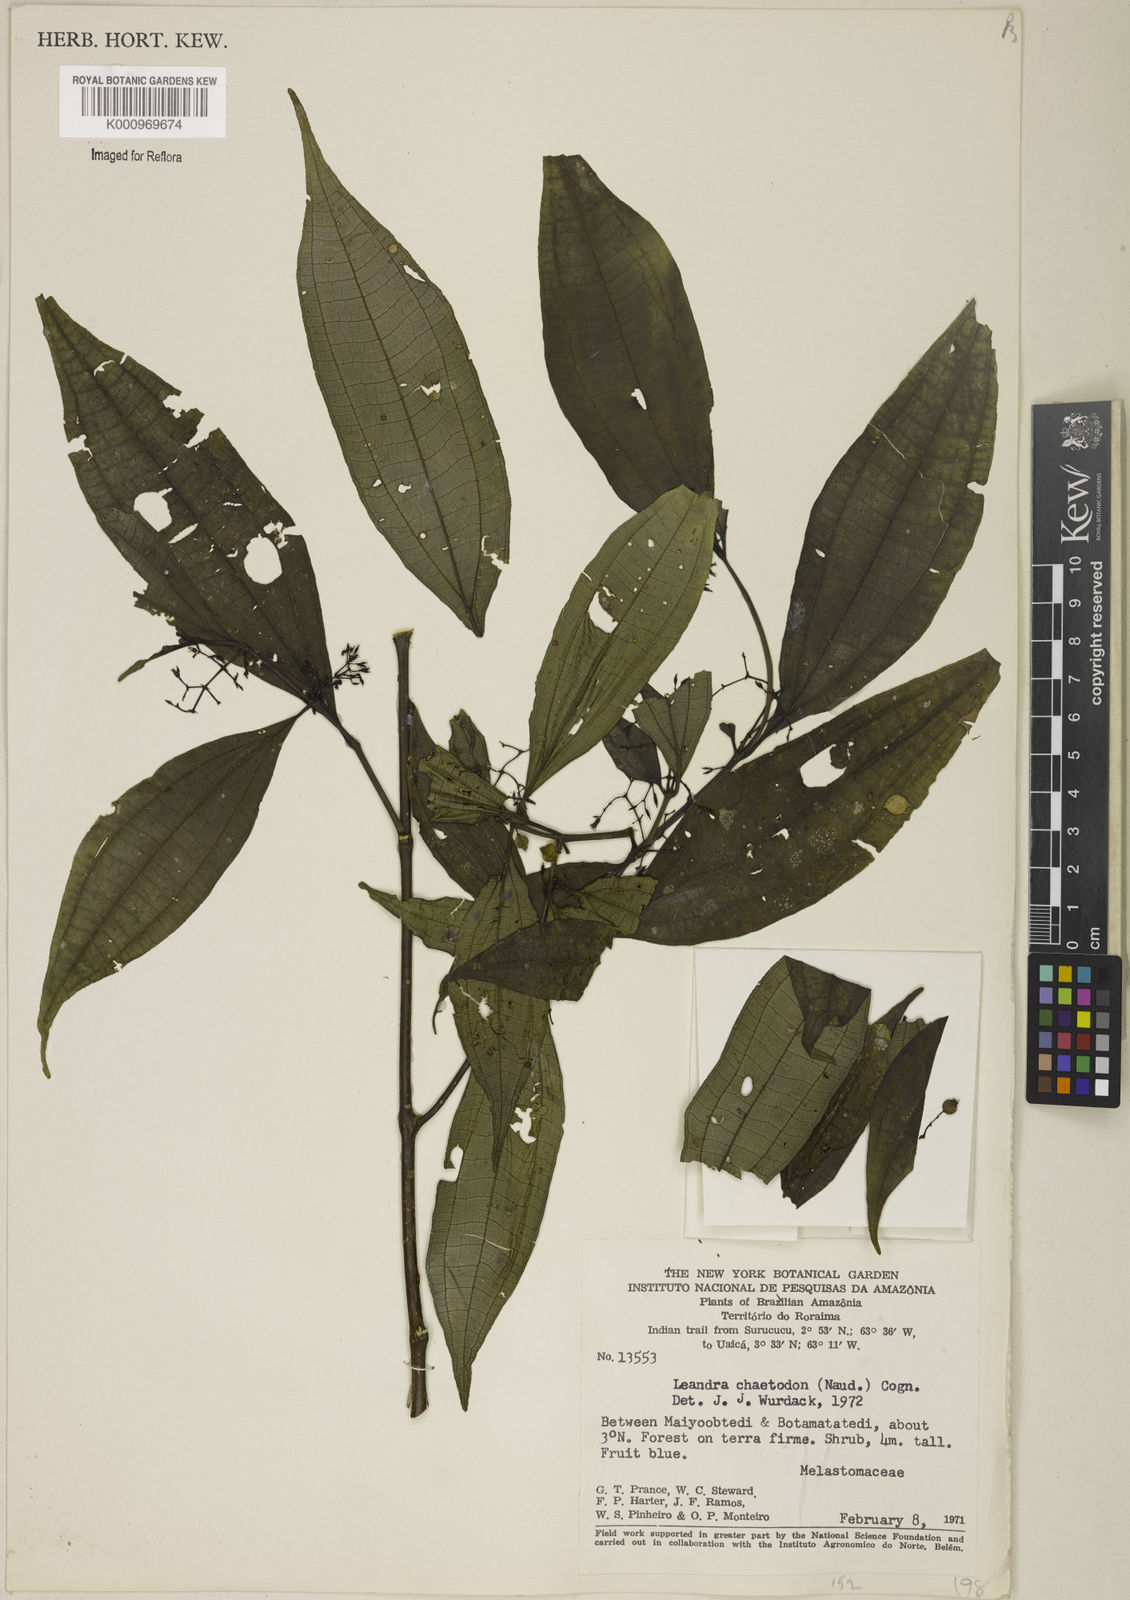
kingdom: Plantae
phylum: Tracheophyta
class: Magnoliopsida
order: Myrtales
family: Melastomataceae
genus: Miconia
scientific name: Miconia chaetodonta
